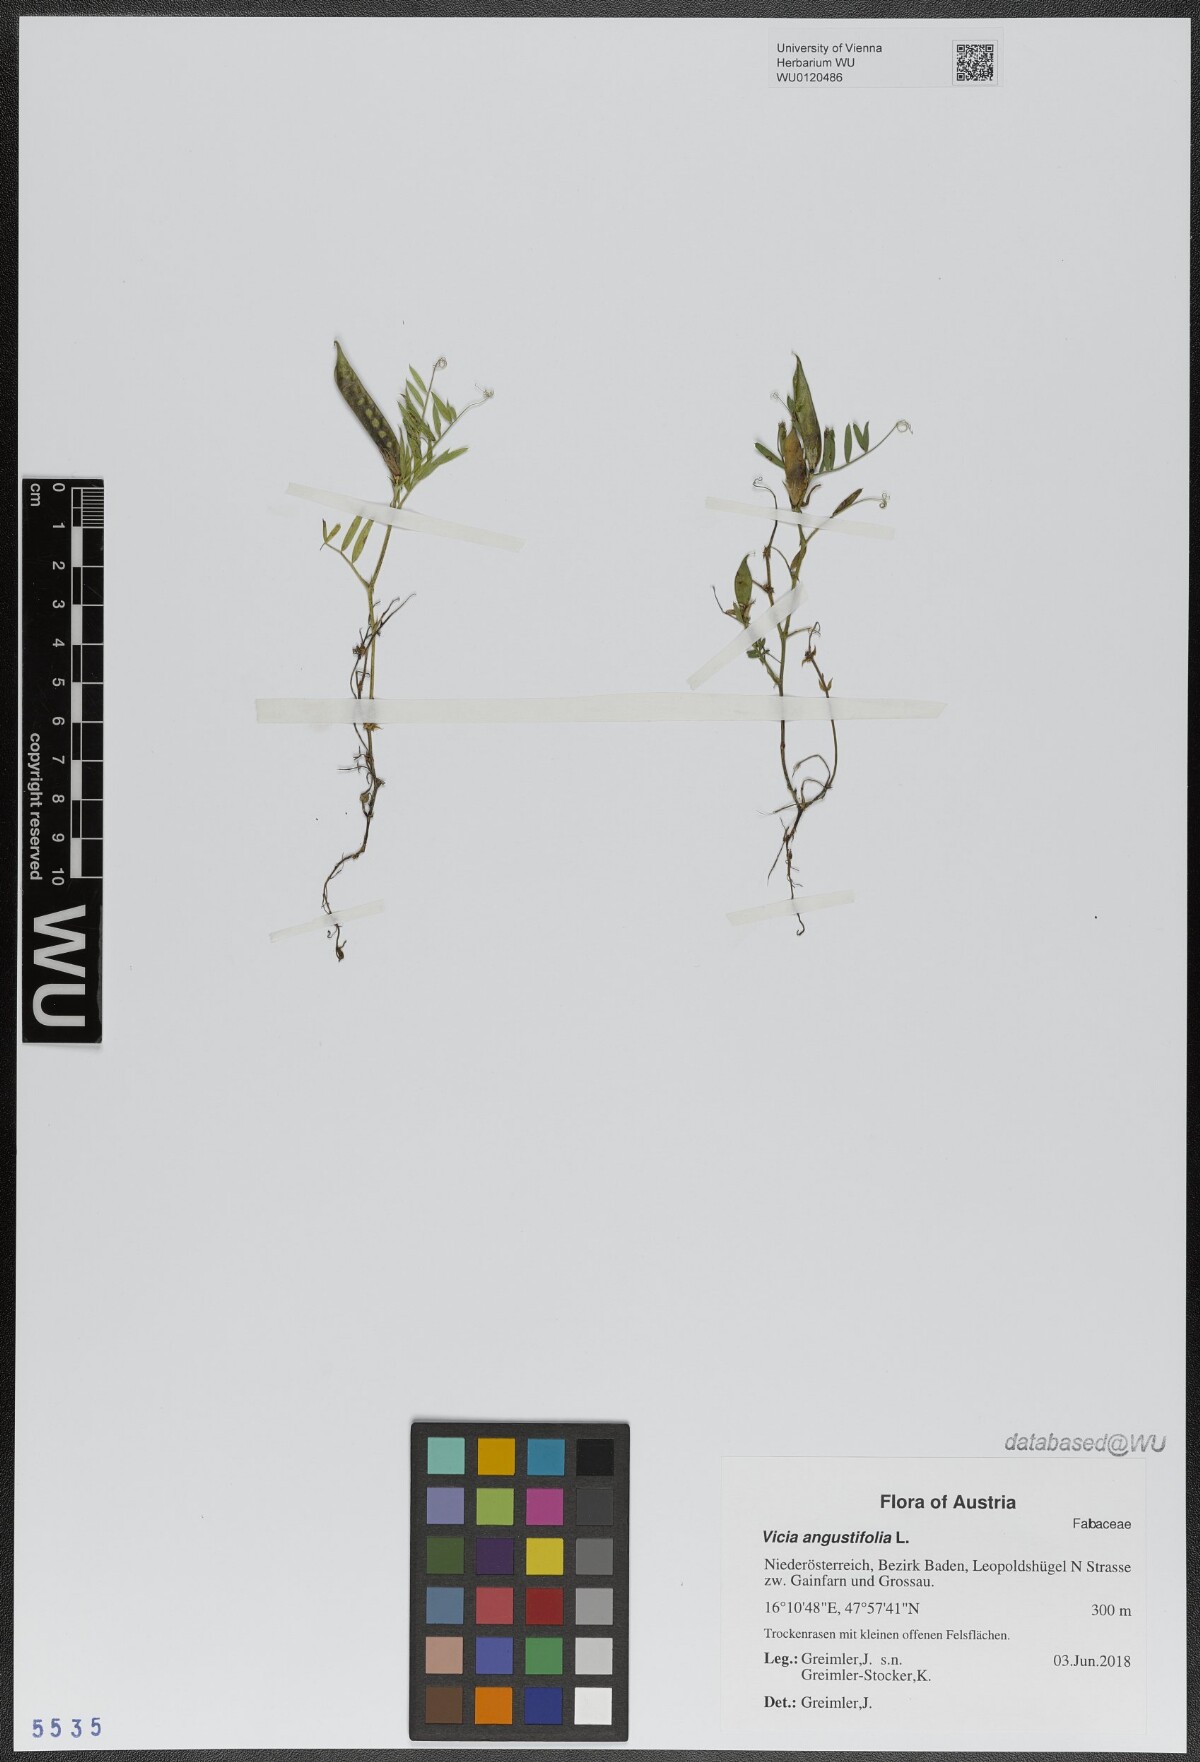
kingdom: Plantae
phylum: Tracheophyta
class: Magnoliopsida
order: Fabales
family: Fabaceae
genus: Vicia
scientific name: Vicia sativa
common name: Garden vetch
